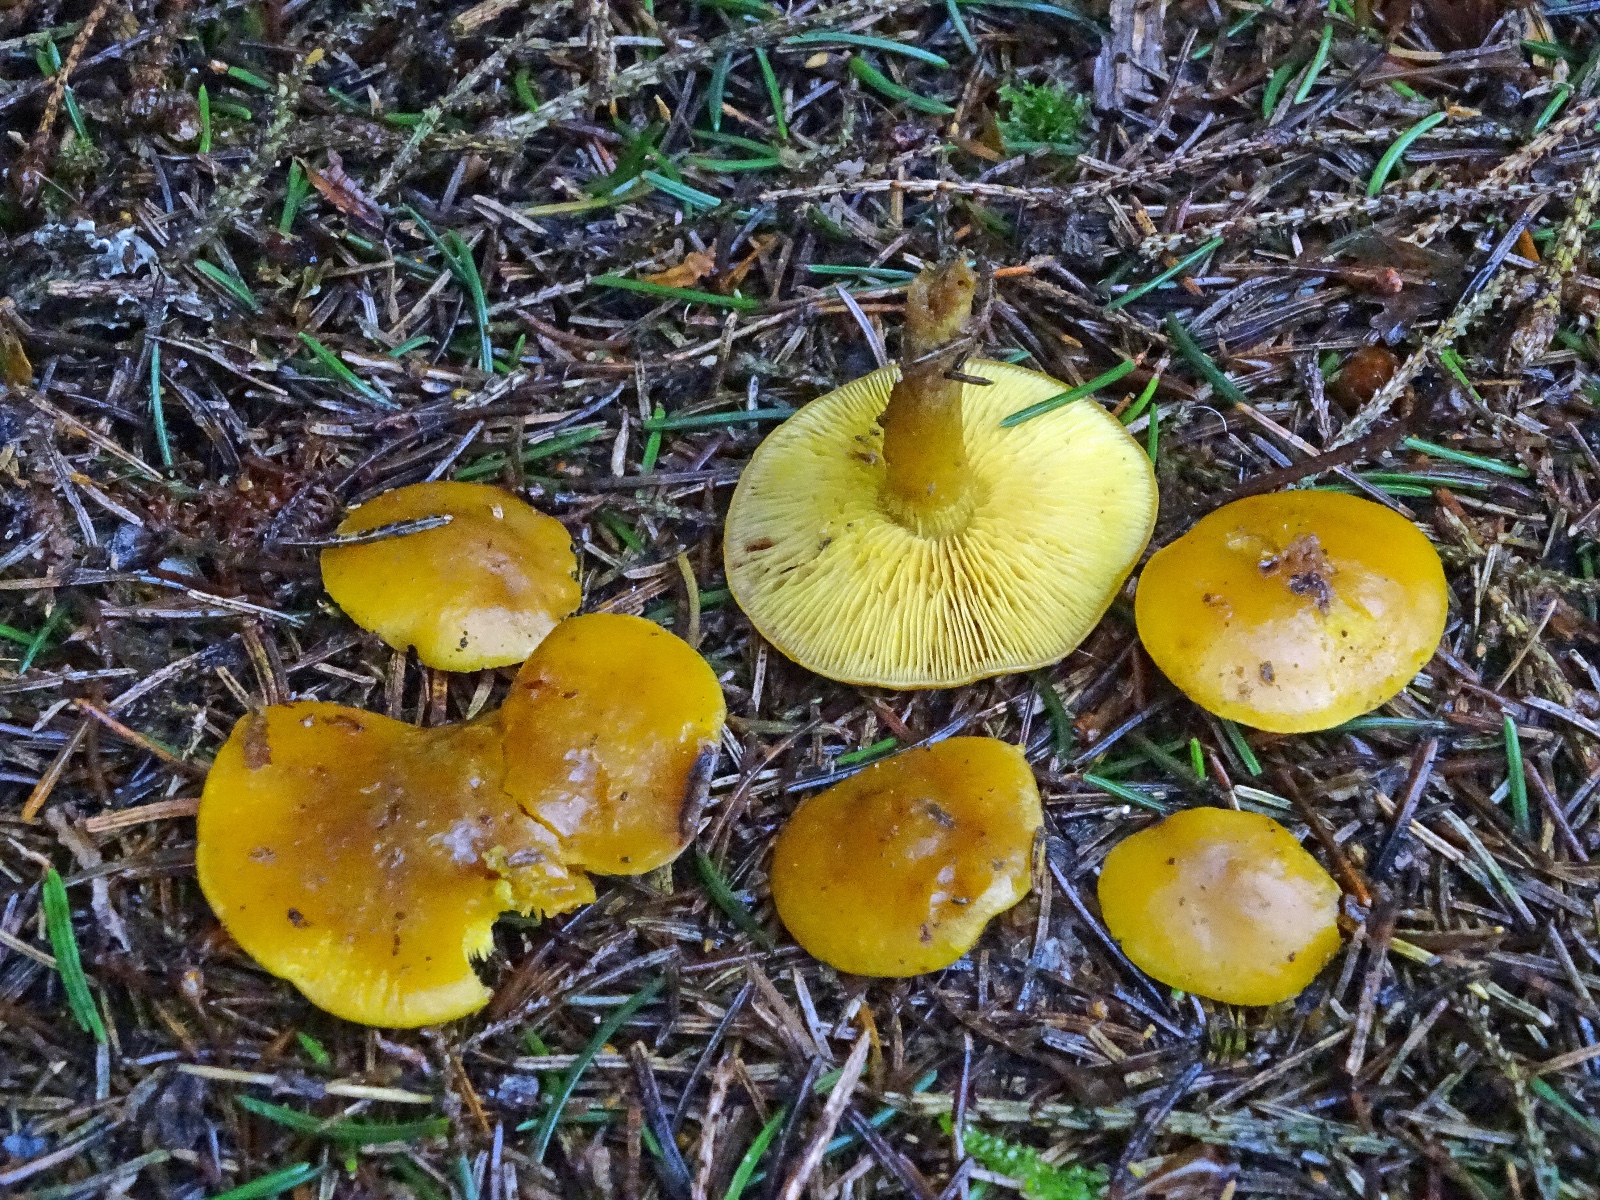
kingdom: Fungi
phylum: Basidiomycota
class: Agaricomycetes
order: Agaricales
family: Lyophyllaceae
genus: Calocybe
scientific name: Calocybe chrysenteron
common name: brungul fagerhat
